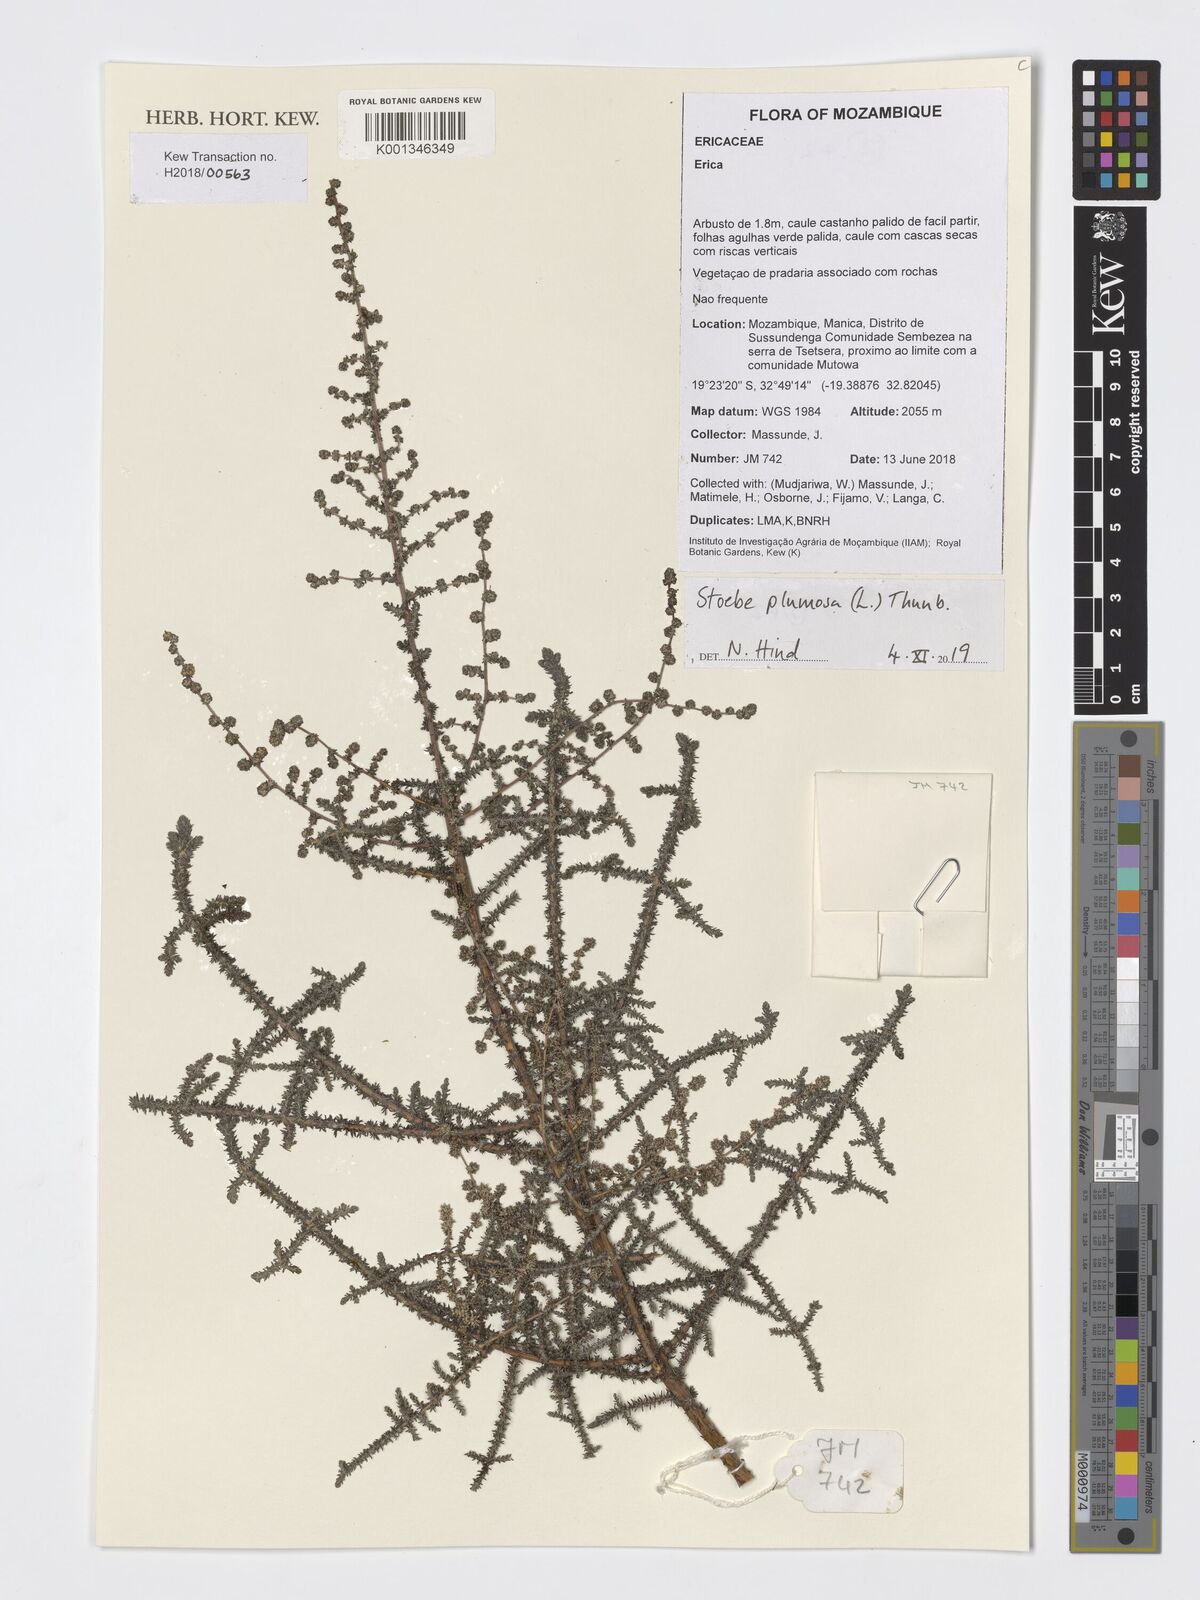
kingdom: Plantae
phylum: Tracheophyta
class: Magnoliopsida
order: Asterales
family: Asteraceae
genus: Seriphium
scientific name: Seriphium plumosum
